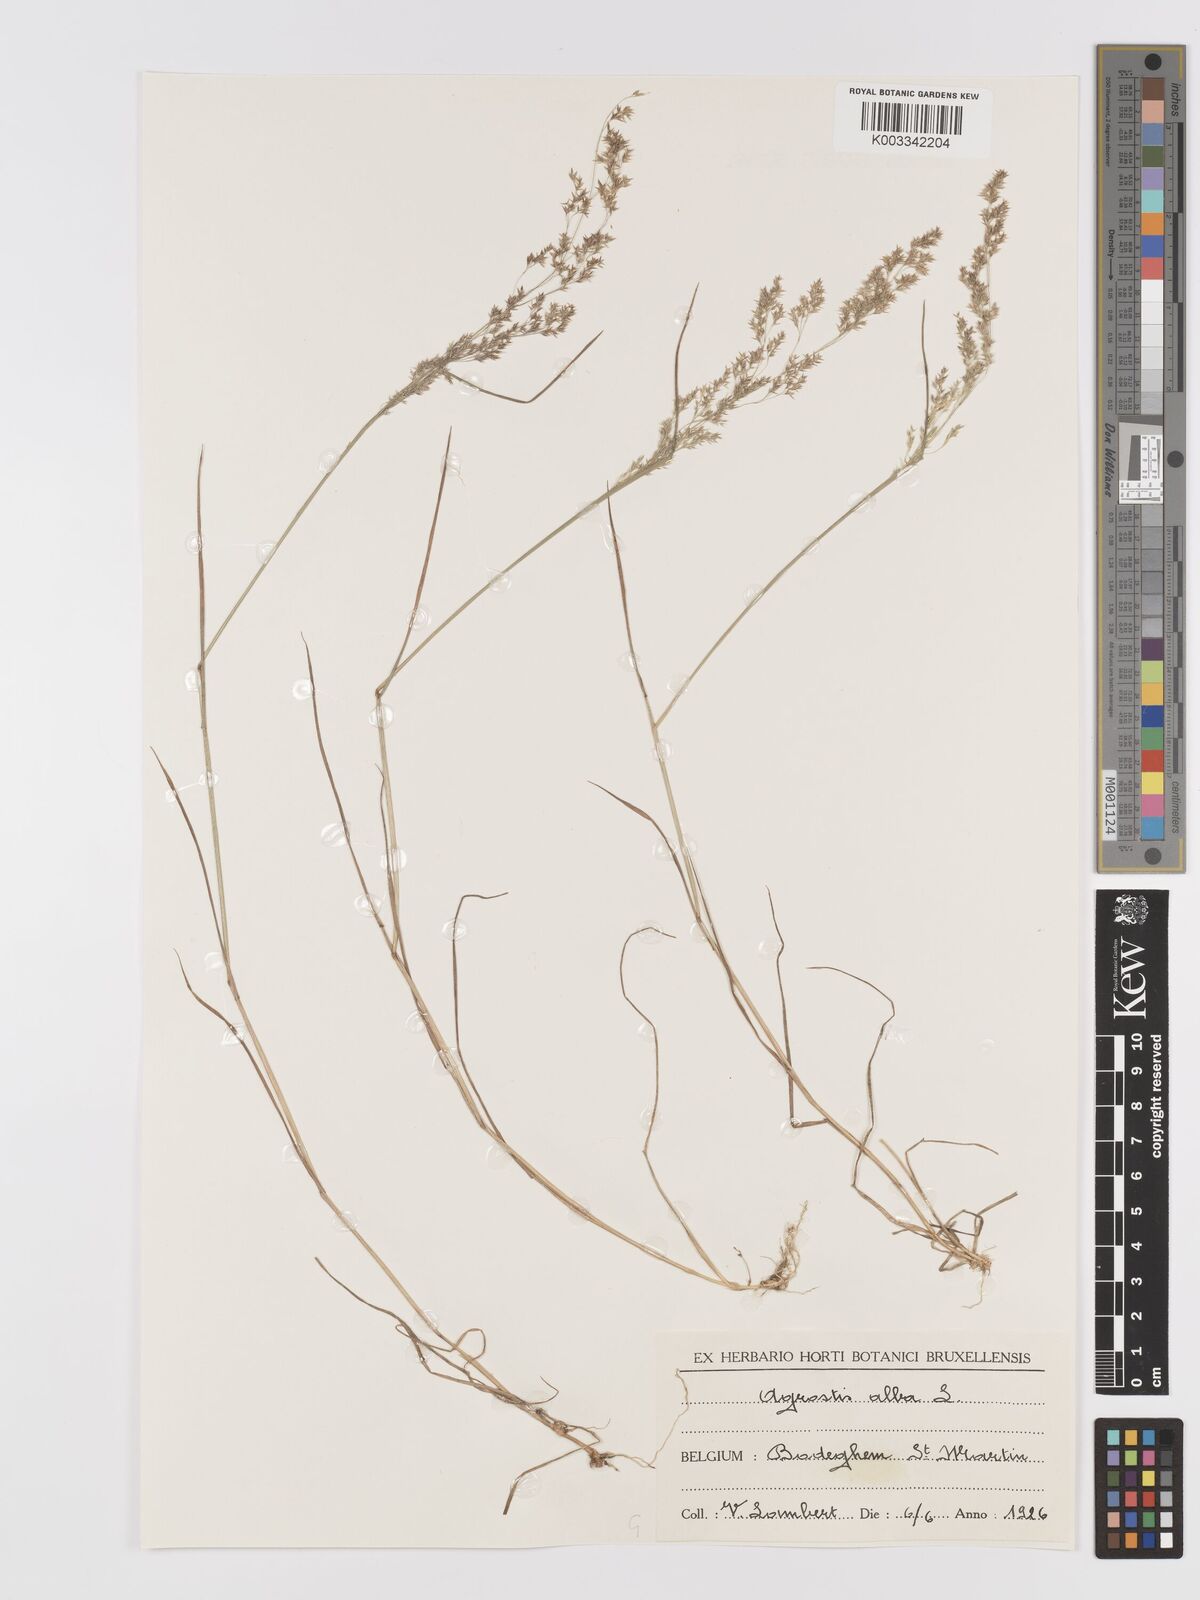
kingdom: Plantae
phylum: Tracheophyta
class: Liliopsida
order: Poales
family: Poaceae
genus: Agrostis
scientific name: Agrostis stolonifera
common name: Creeping bentgrass
